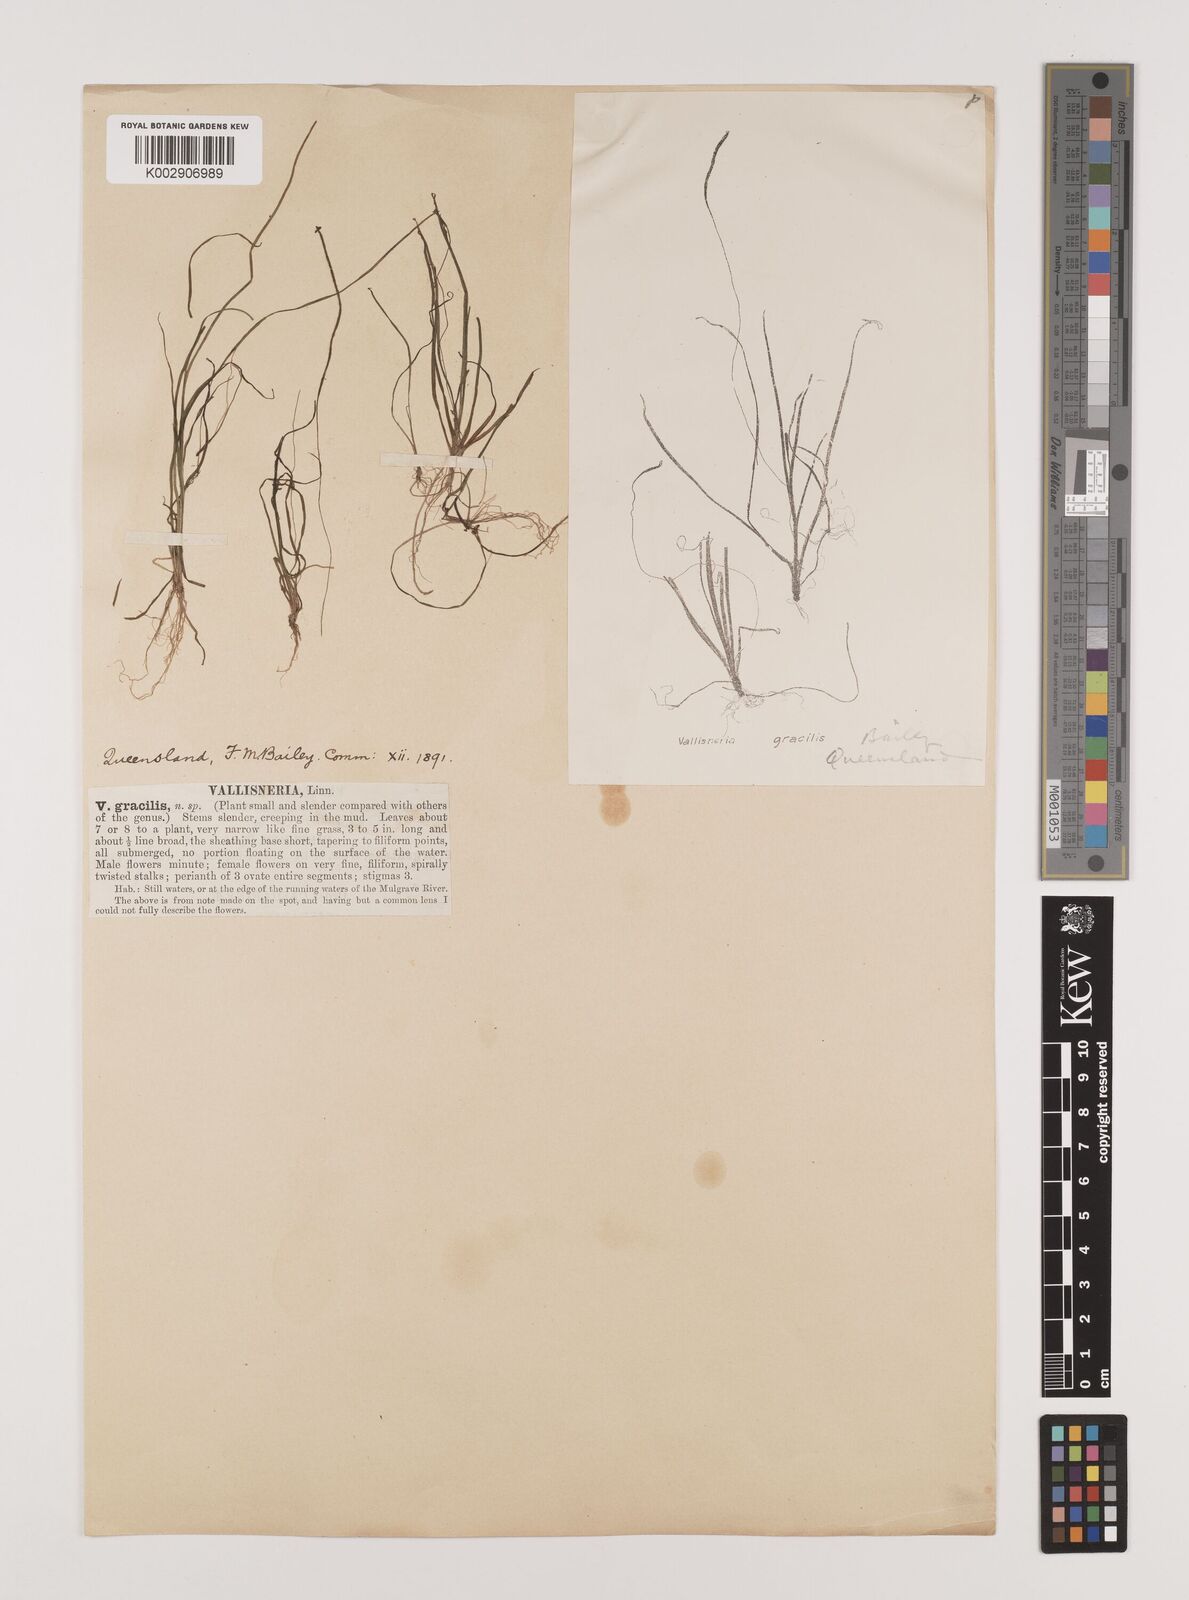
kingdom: Plantae
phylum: Tracheophyta
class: Liliopsida
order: Alismatales
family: Hydrocharitaceae
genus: Vallisneria
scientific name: Vallisneria nana
